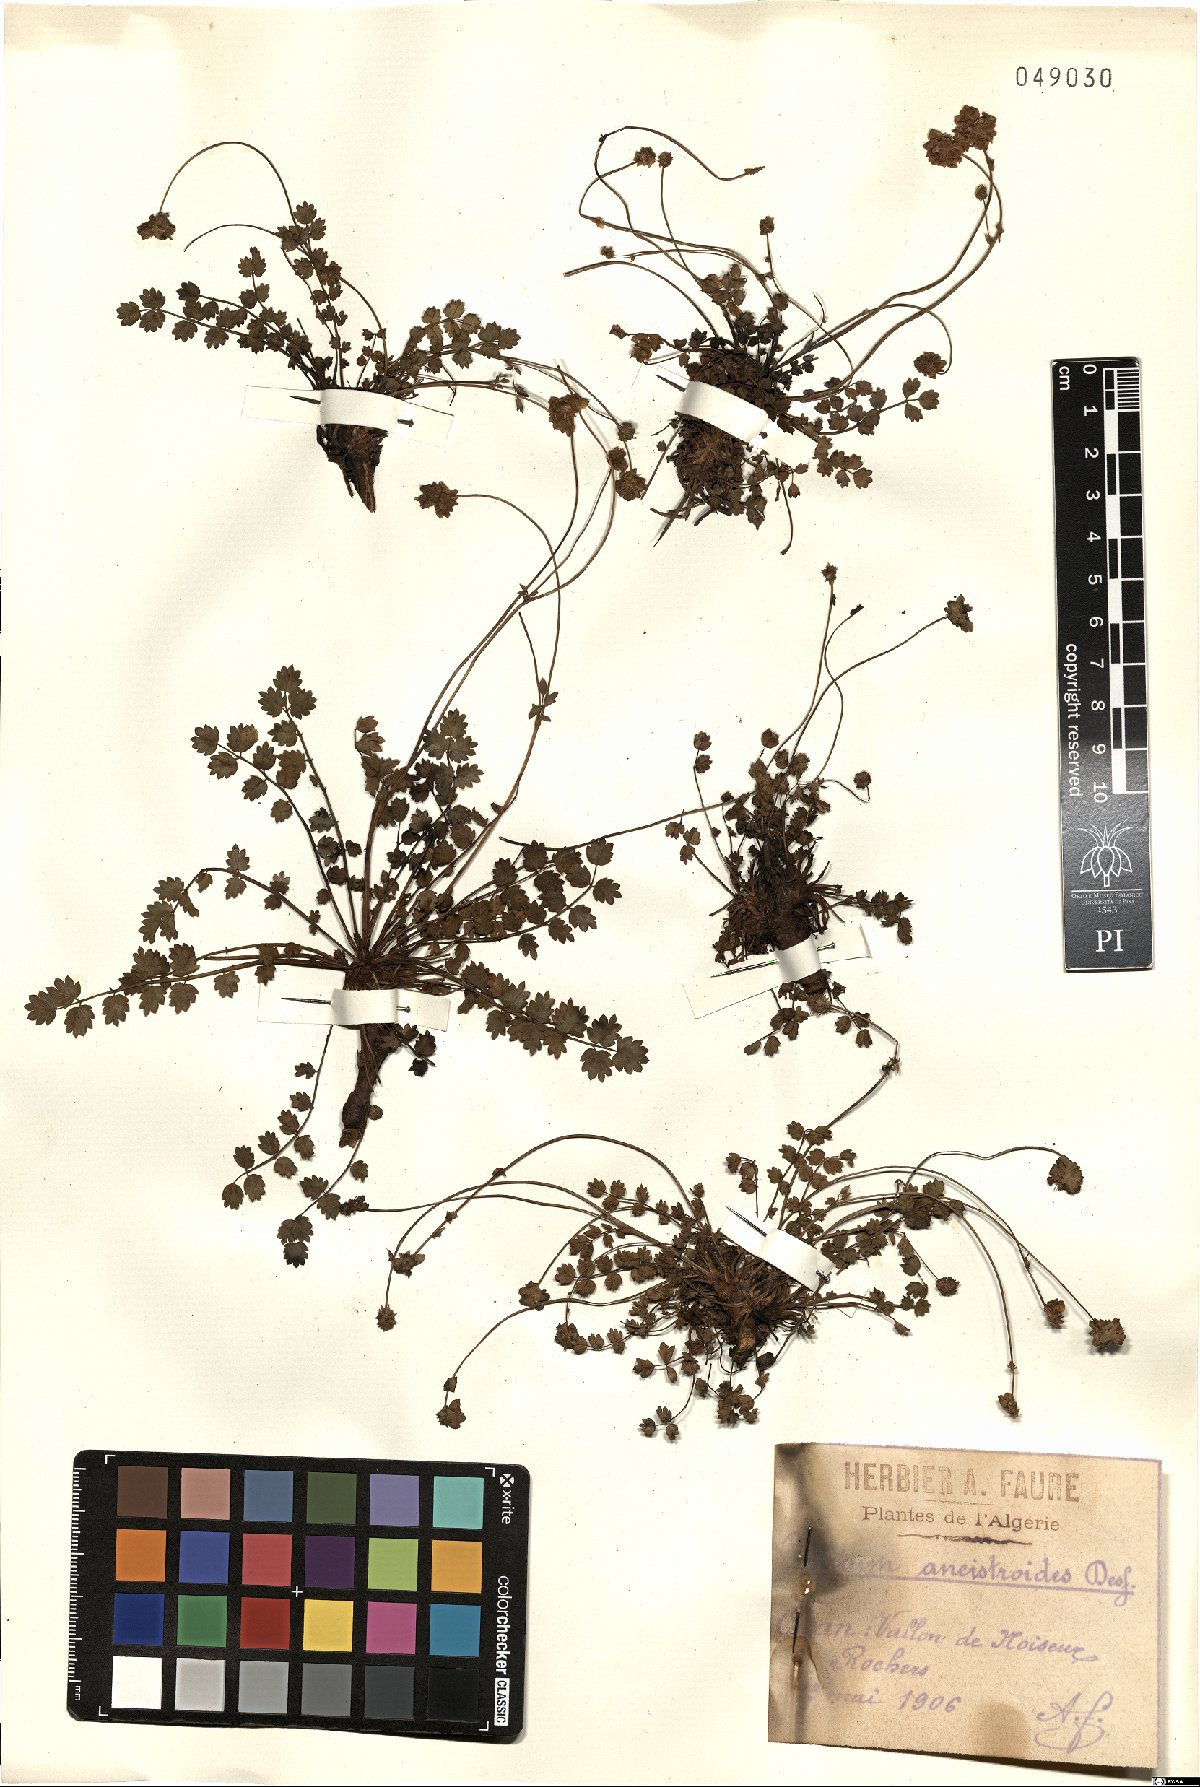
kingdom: Plantae
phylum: Tracheophyta
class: Magnoliopsida
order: Rosales
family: Rosaceae
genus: Poterium
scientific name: Poterium ancistroides
